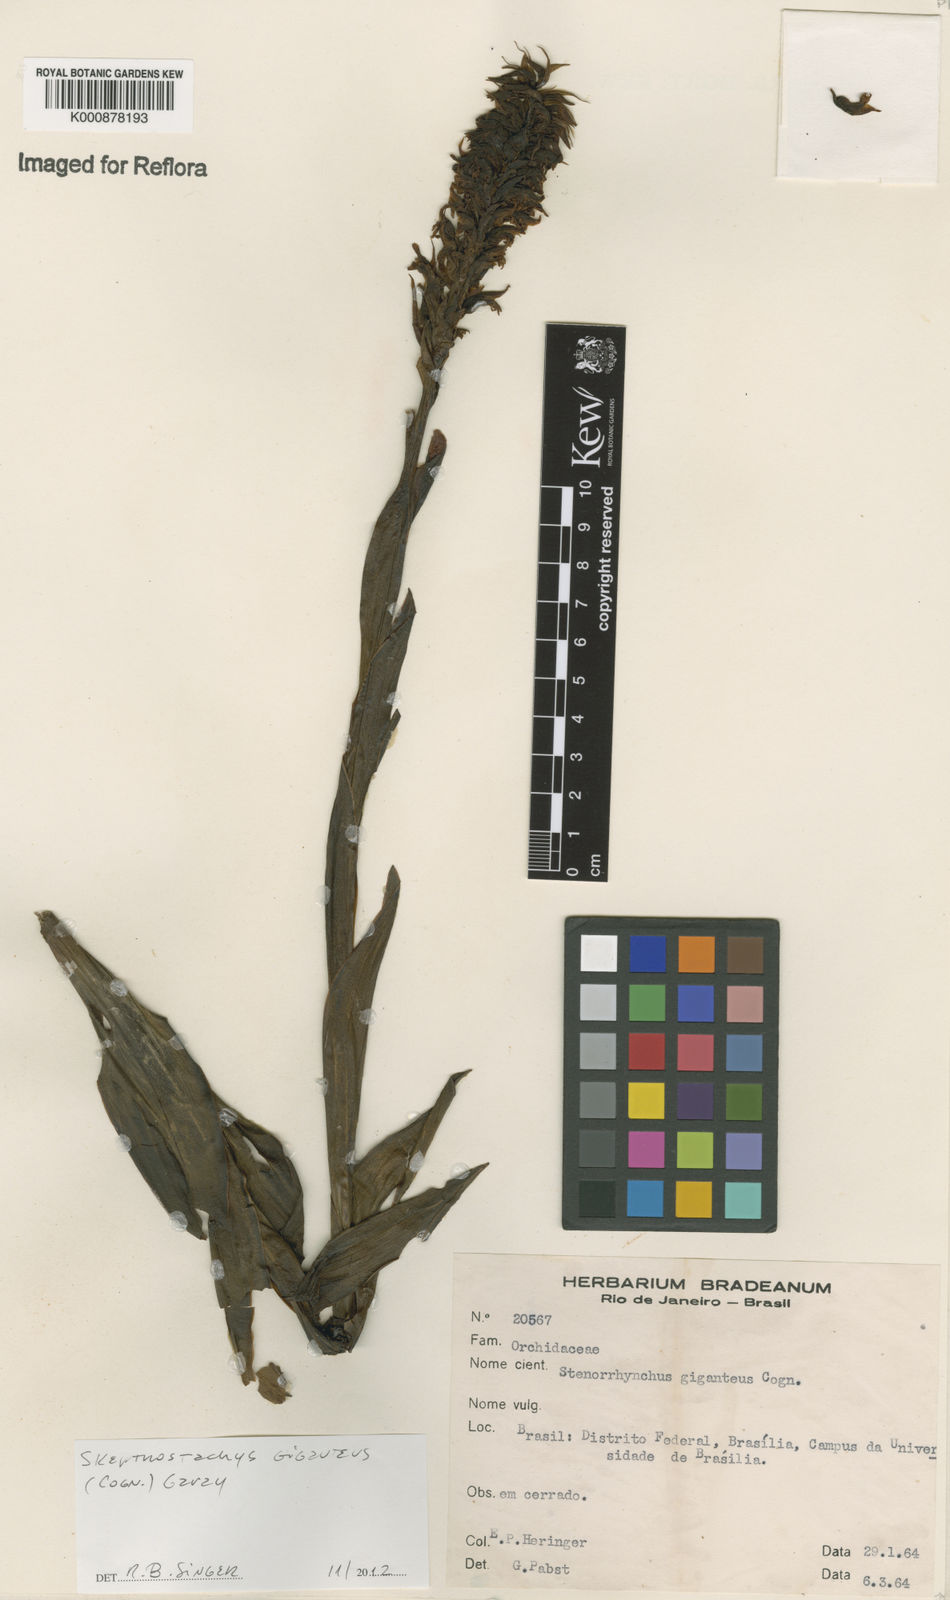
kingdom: Plantae
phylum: Tracheophyta
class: Liliopsida
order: Asparagales
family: Orchidaceae
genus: Skeptrostachys
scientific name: Skeptrostachys gigantea
